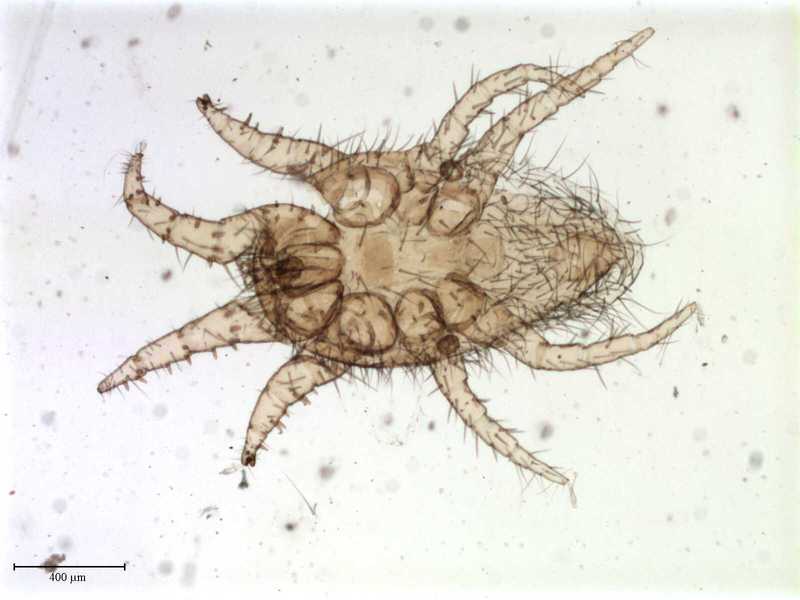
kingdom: Animalia
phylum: Arthropoda
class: Arachnida
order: Mesostigmata
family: Laelapidae
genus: Dinogamasus
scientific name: Dinogamasus
